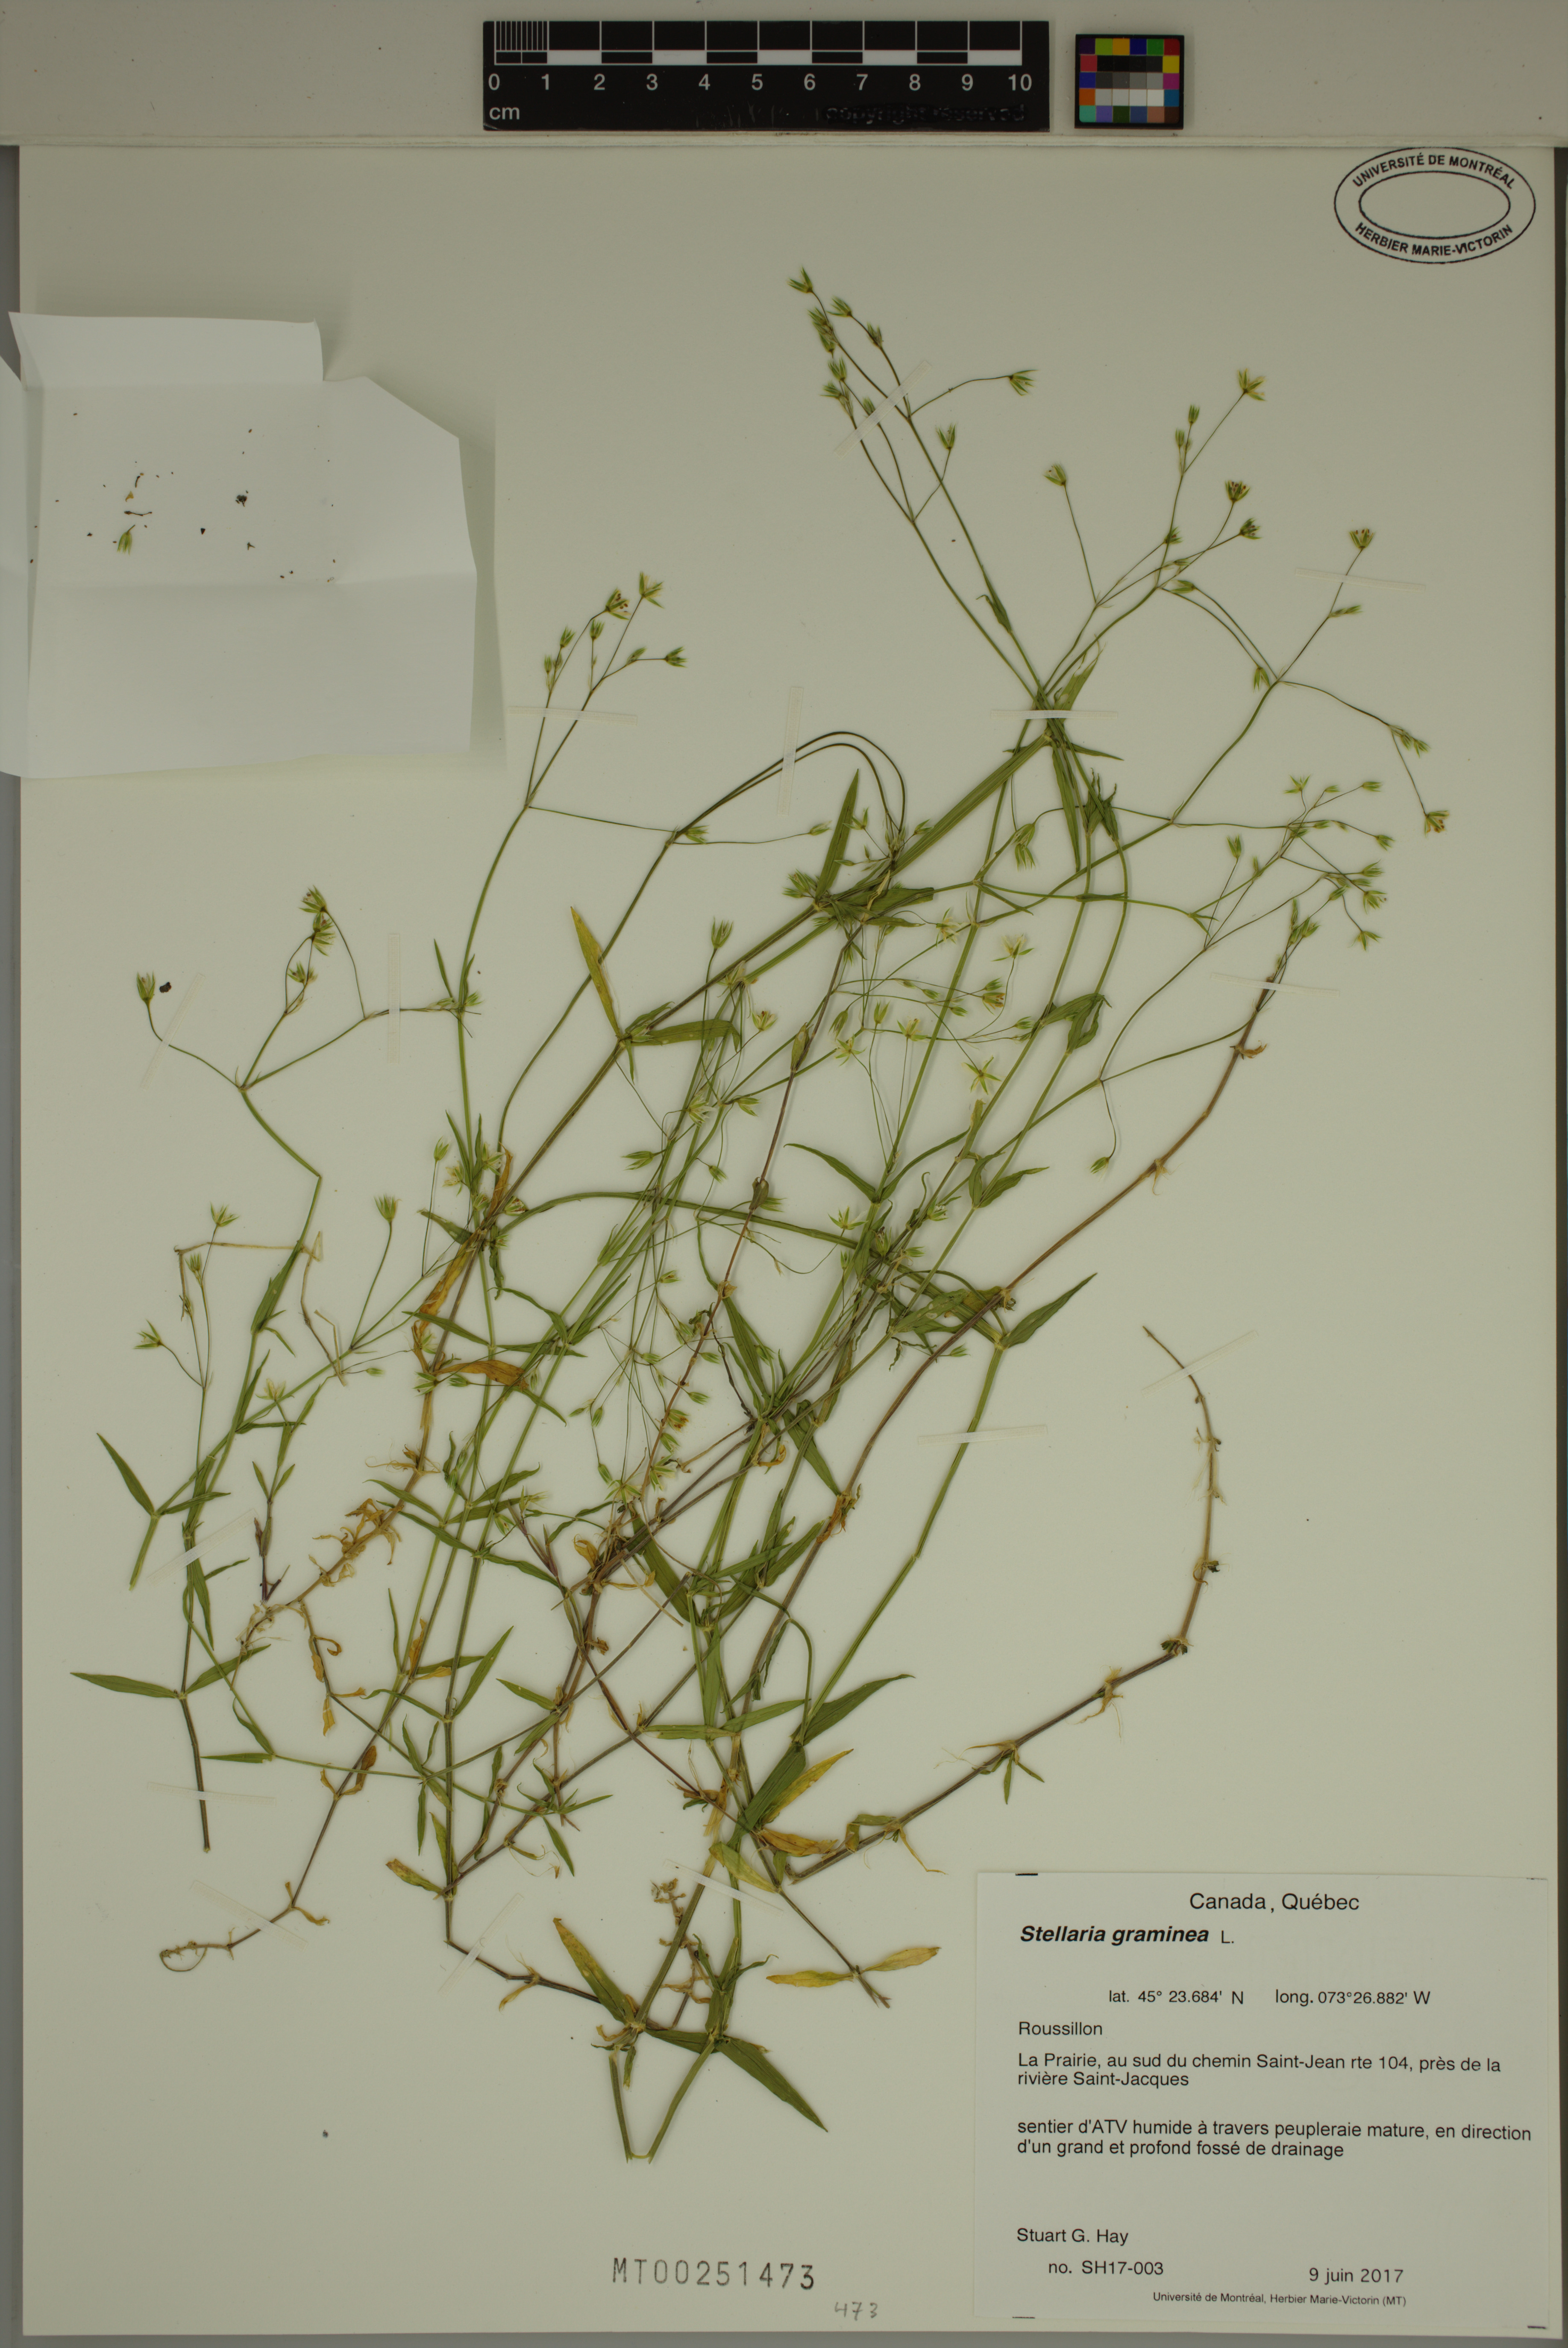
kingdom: Plantae
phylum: Tracheophyta
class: Magnoliopsida
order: Caryophyllales
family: Caryophyllaceae
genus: Stellaria
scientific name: Stellaria graminea
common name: Grass-like starwort
